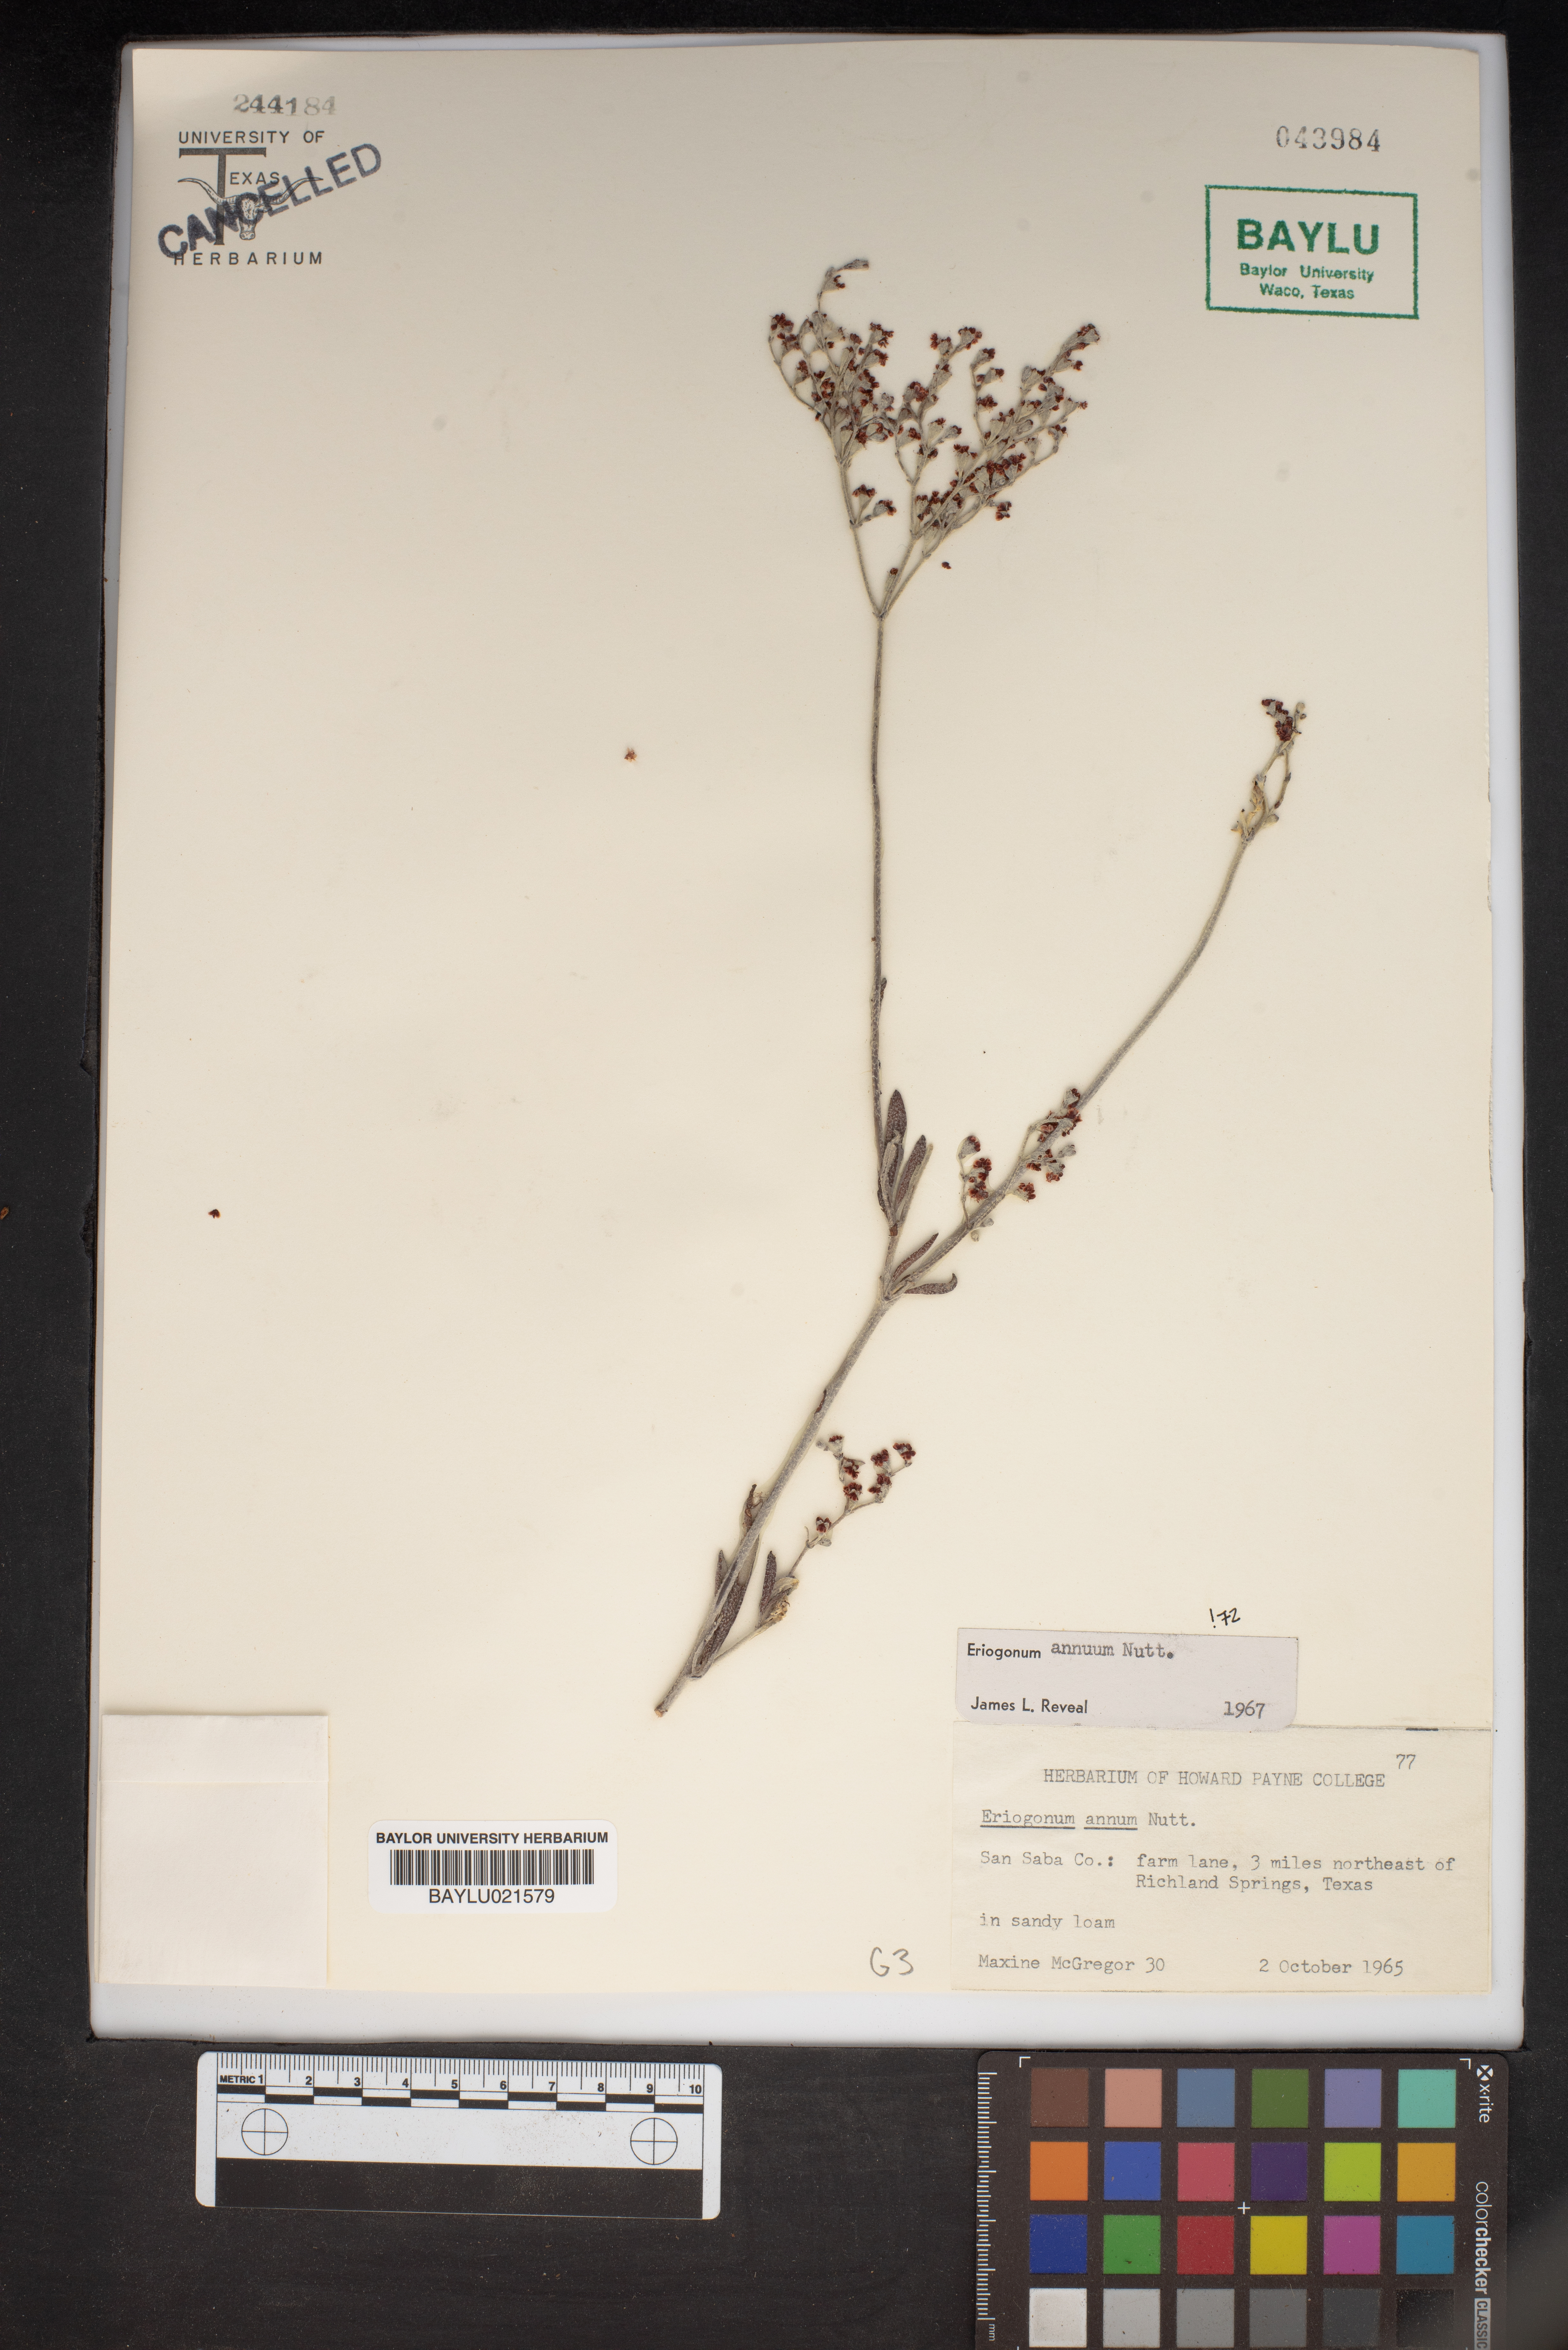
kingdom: Plantae
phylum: Tracheophyta
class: Magnoliopsida
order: Caryophyllales
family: Polygonaceae
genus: Eriogonum
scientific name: Eriogonum annuum
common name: Annual wild buckwheat
